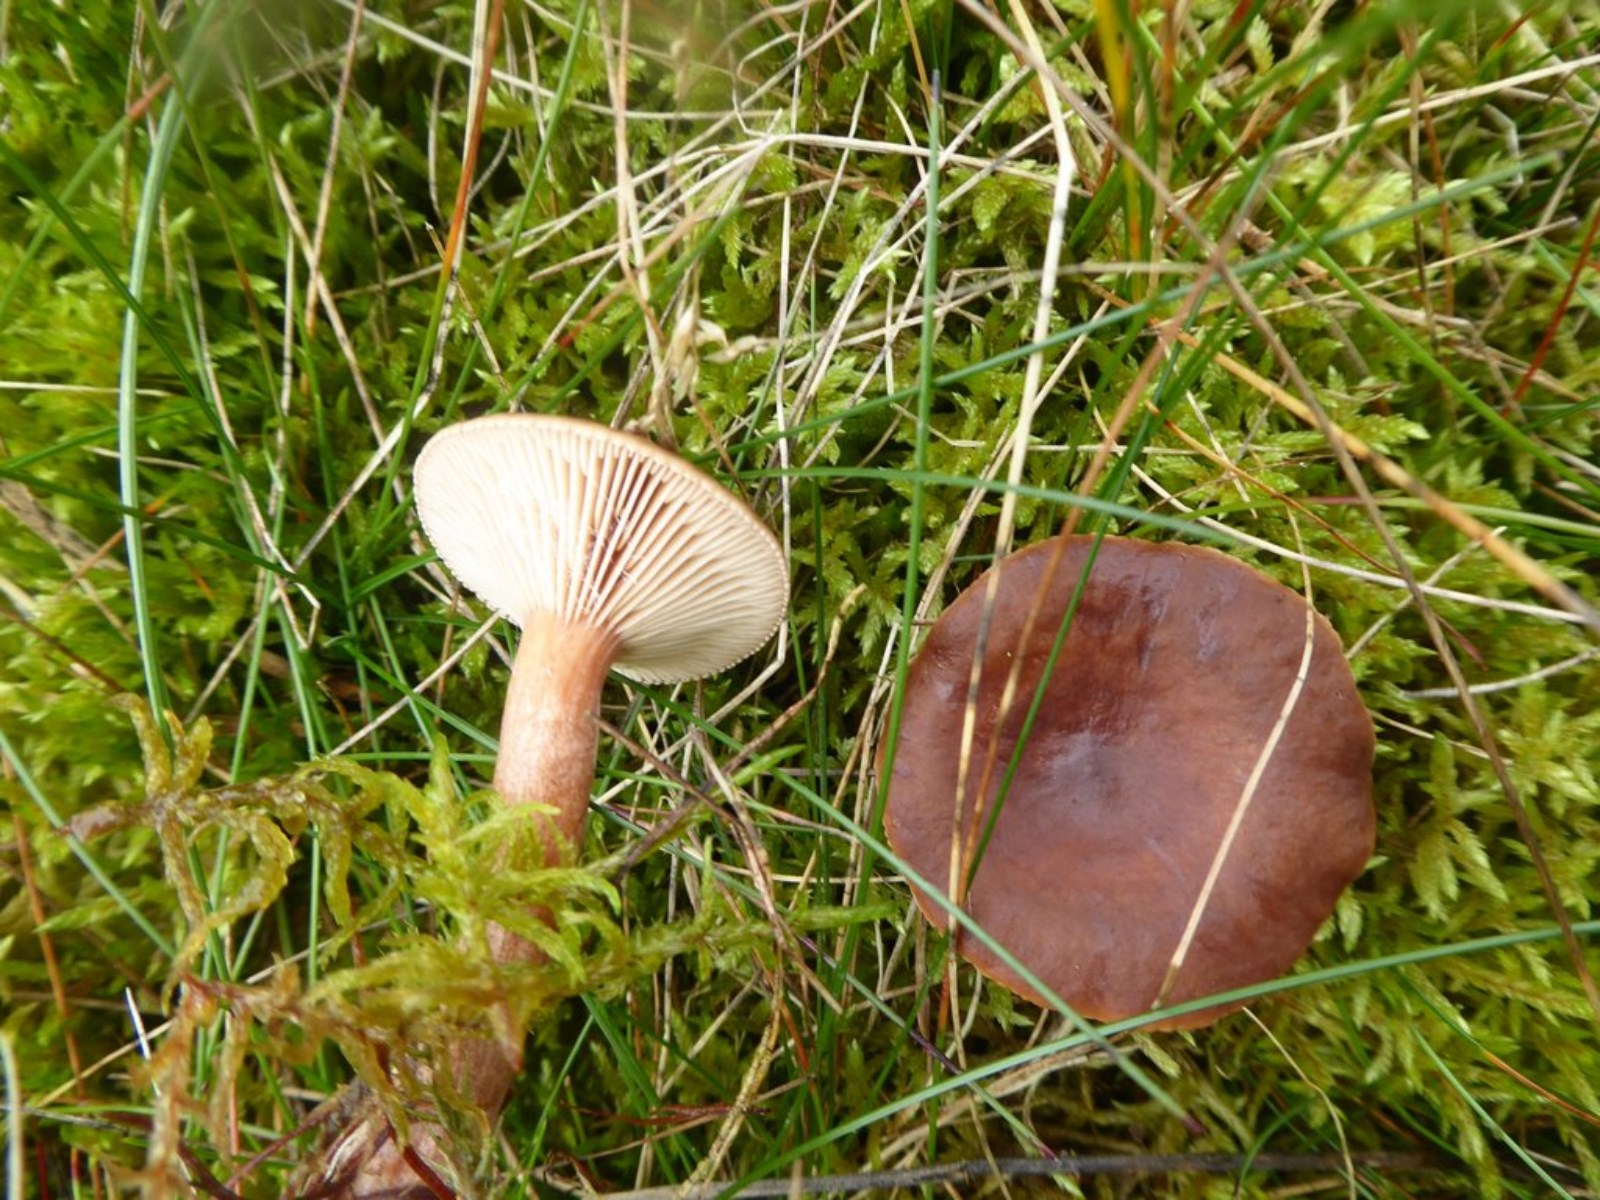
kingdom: Fungi
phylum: Basidiomycota
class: Agaricomycetes
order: Russulales
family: Russulaceae
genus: Lactarius
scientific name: Lactarius rufus
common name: rødbrun mælkehat
